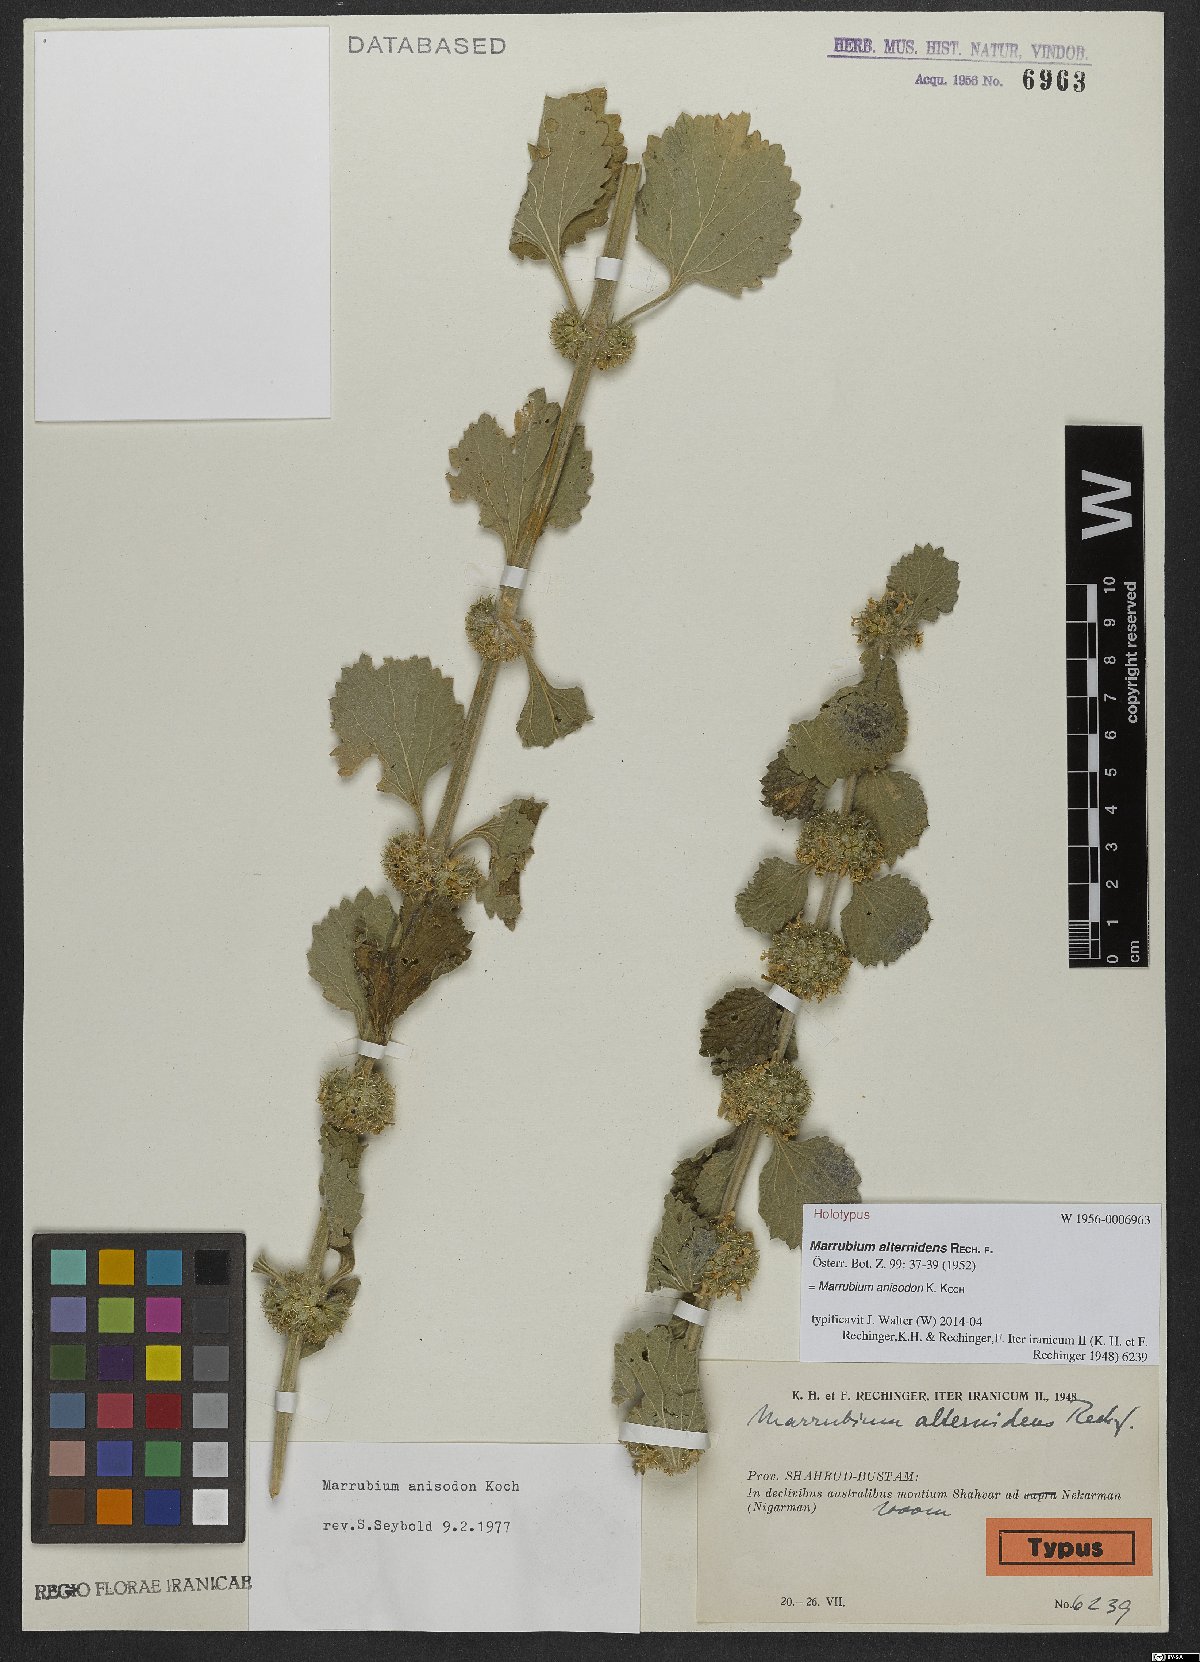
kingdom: Plantae
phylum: Tracheophyta
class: Magnoliopsida
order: Lamiales
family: Lamiaceae
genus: Marrubium
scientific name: Marrubium anisodon
